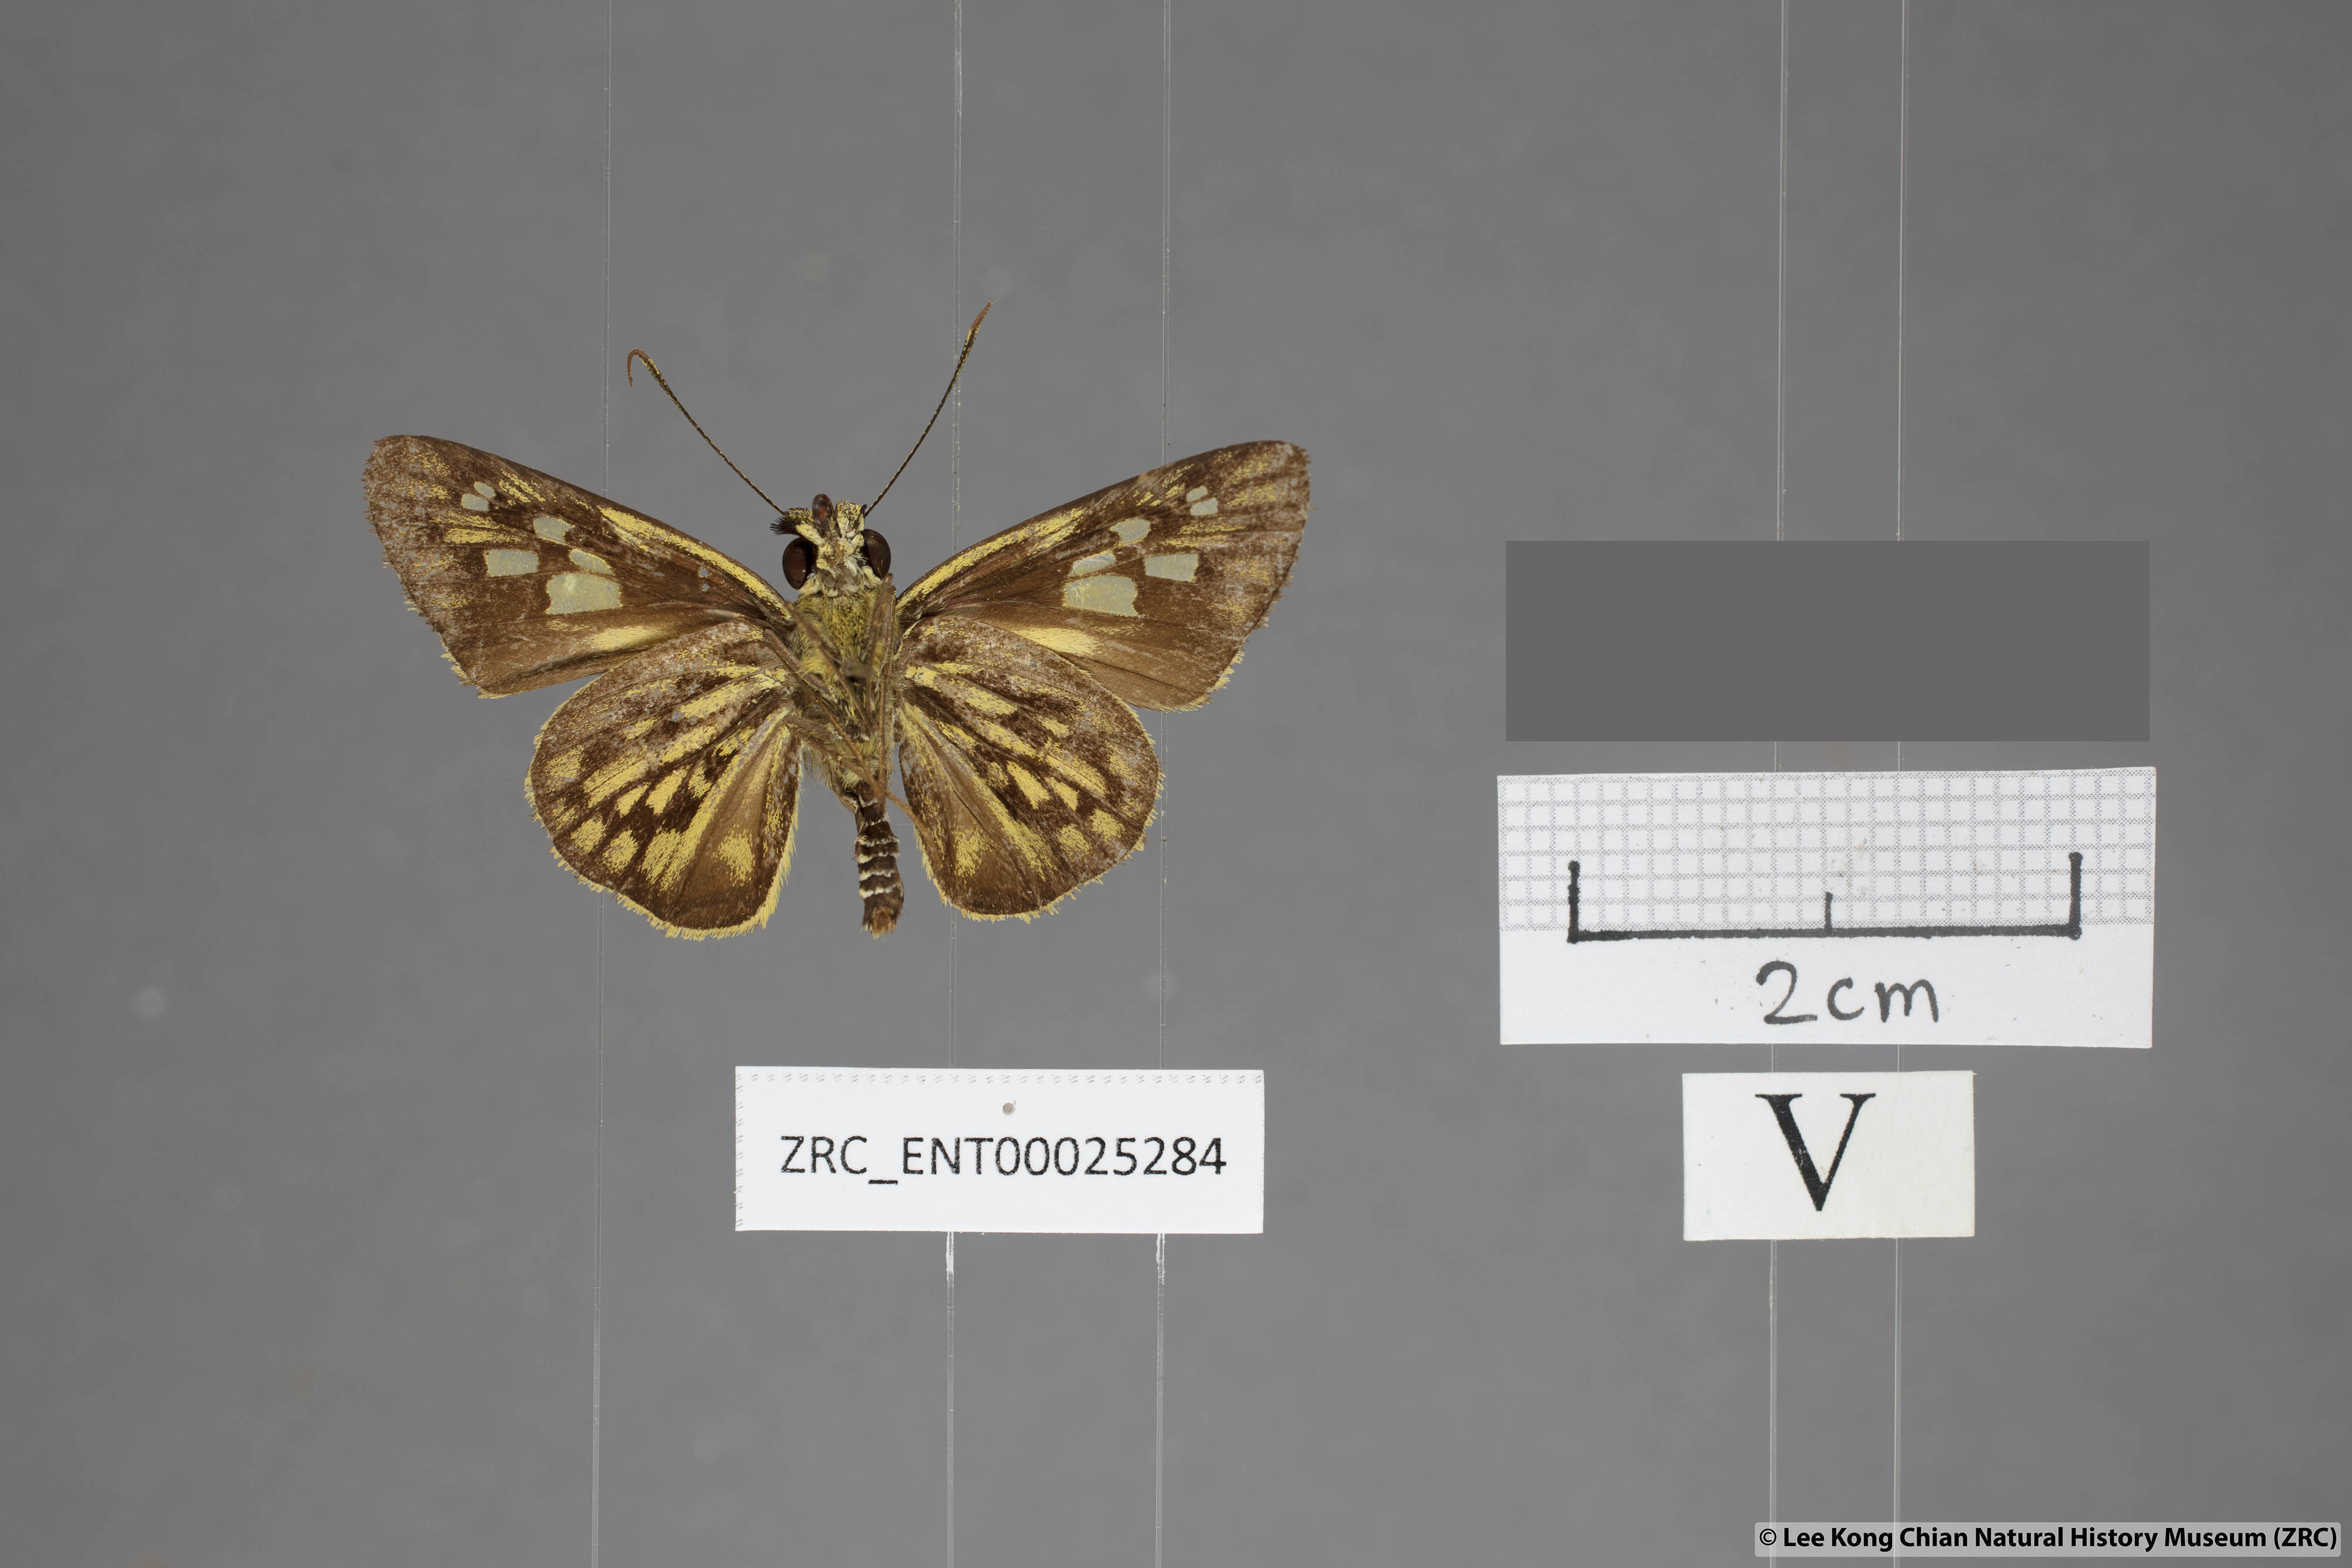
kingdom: Animalia
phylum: Arthropoda
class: Insecta
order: Lepidoptera
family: Hesperiidae
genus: Plastingia
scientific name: Plastingia pellonia
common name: Yellow chequered lancer
